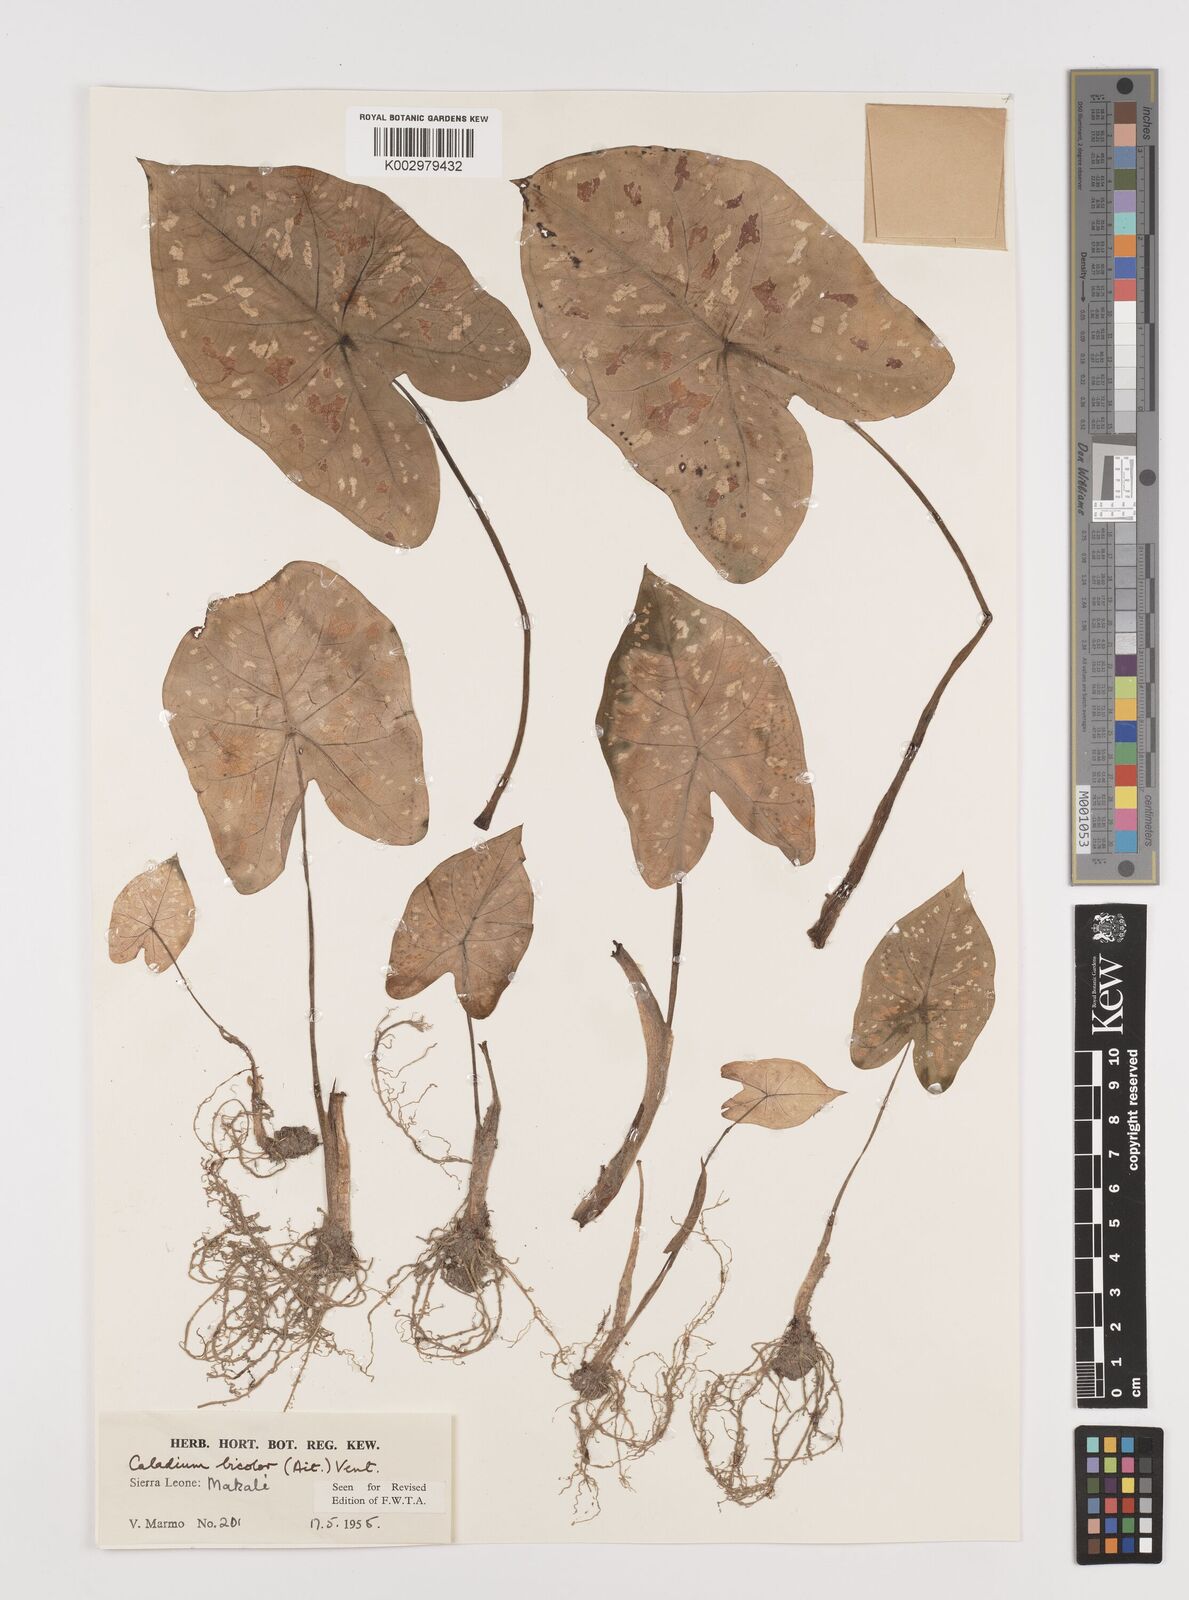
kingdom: Plantae
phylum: Tracheophyta
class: Liliopsida
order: Alismatales
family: Araceae
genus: Caladium
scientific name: Caladium bicolor
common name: Artist's pallet
